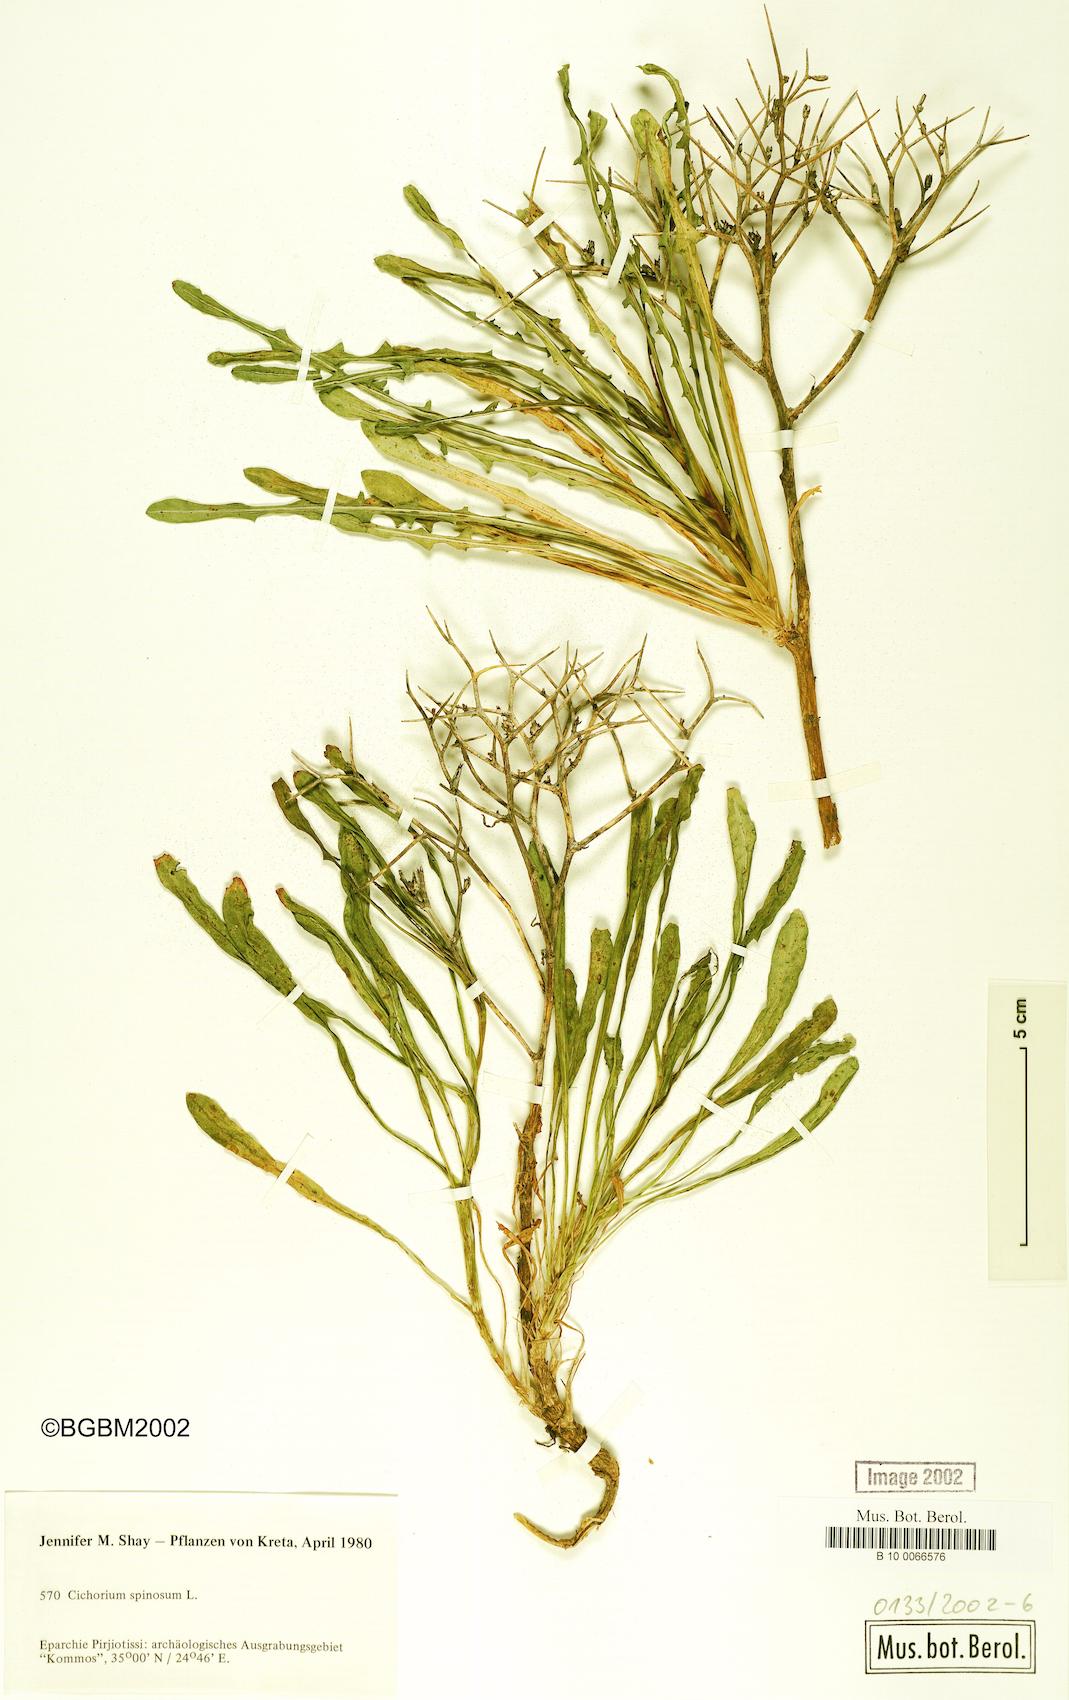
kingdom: Plantae
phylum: Tracheophyta
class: Magnoliopsida
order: Asterales
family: Asteraceae
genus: Cichorium
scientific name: Cichorium spinosum
